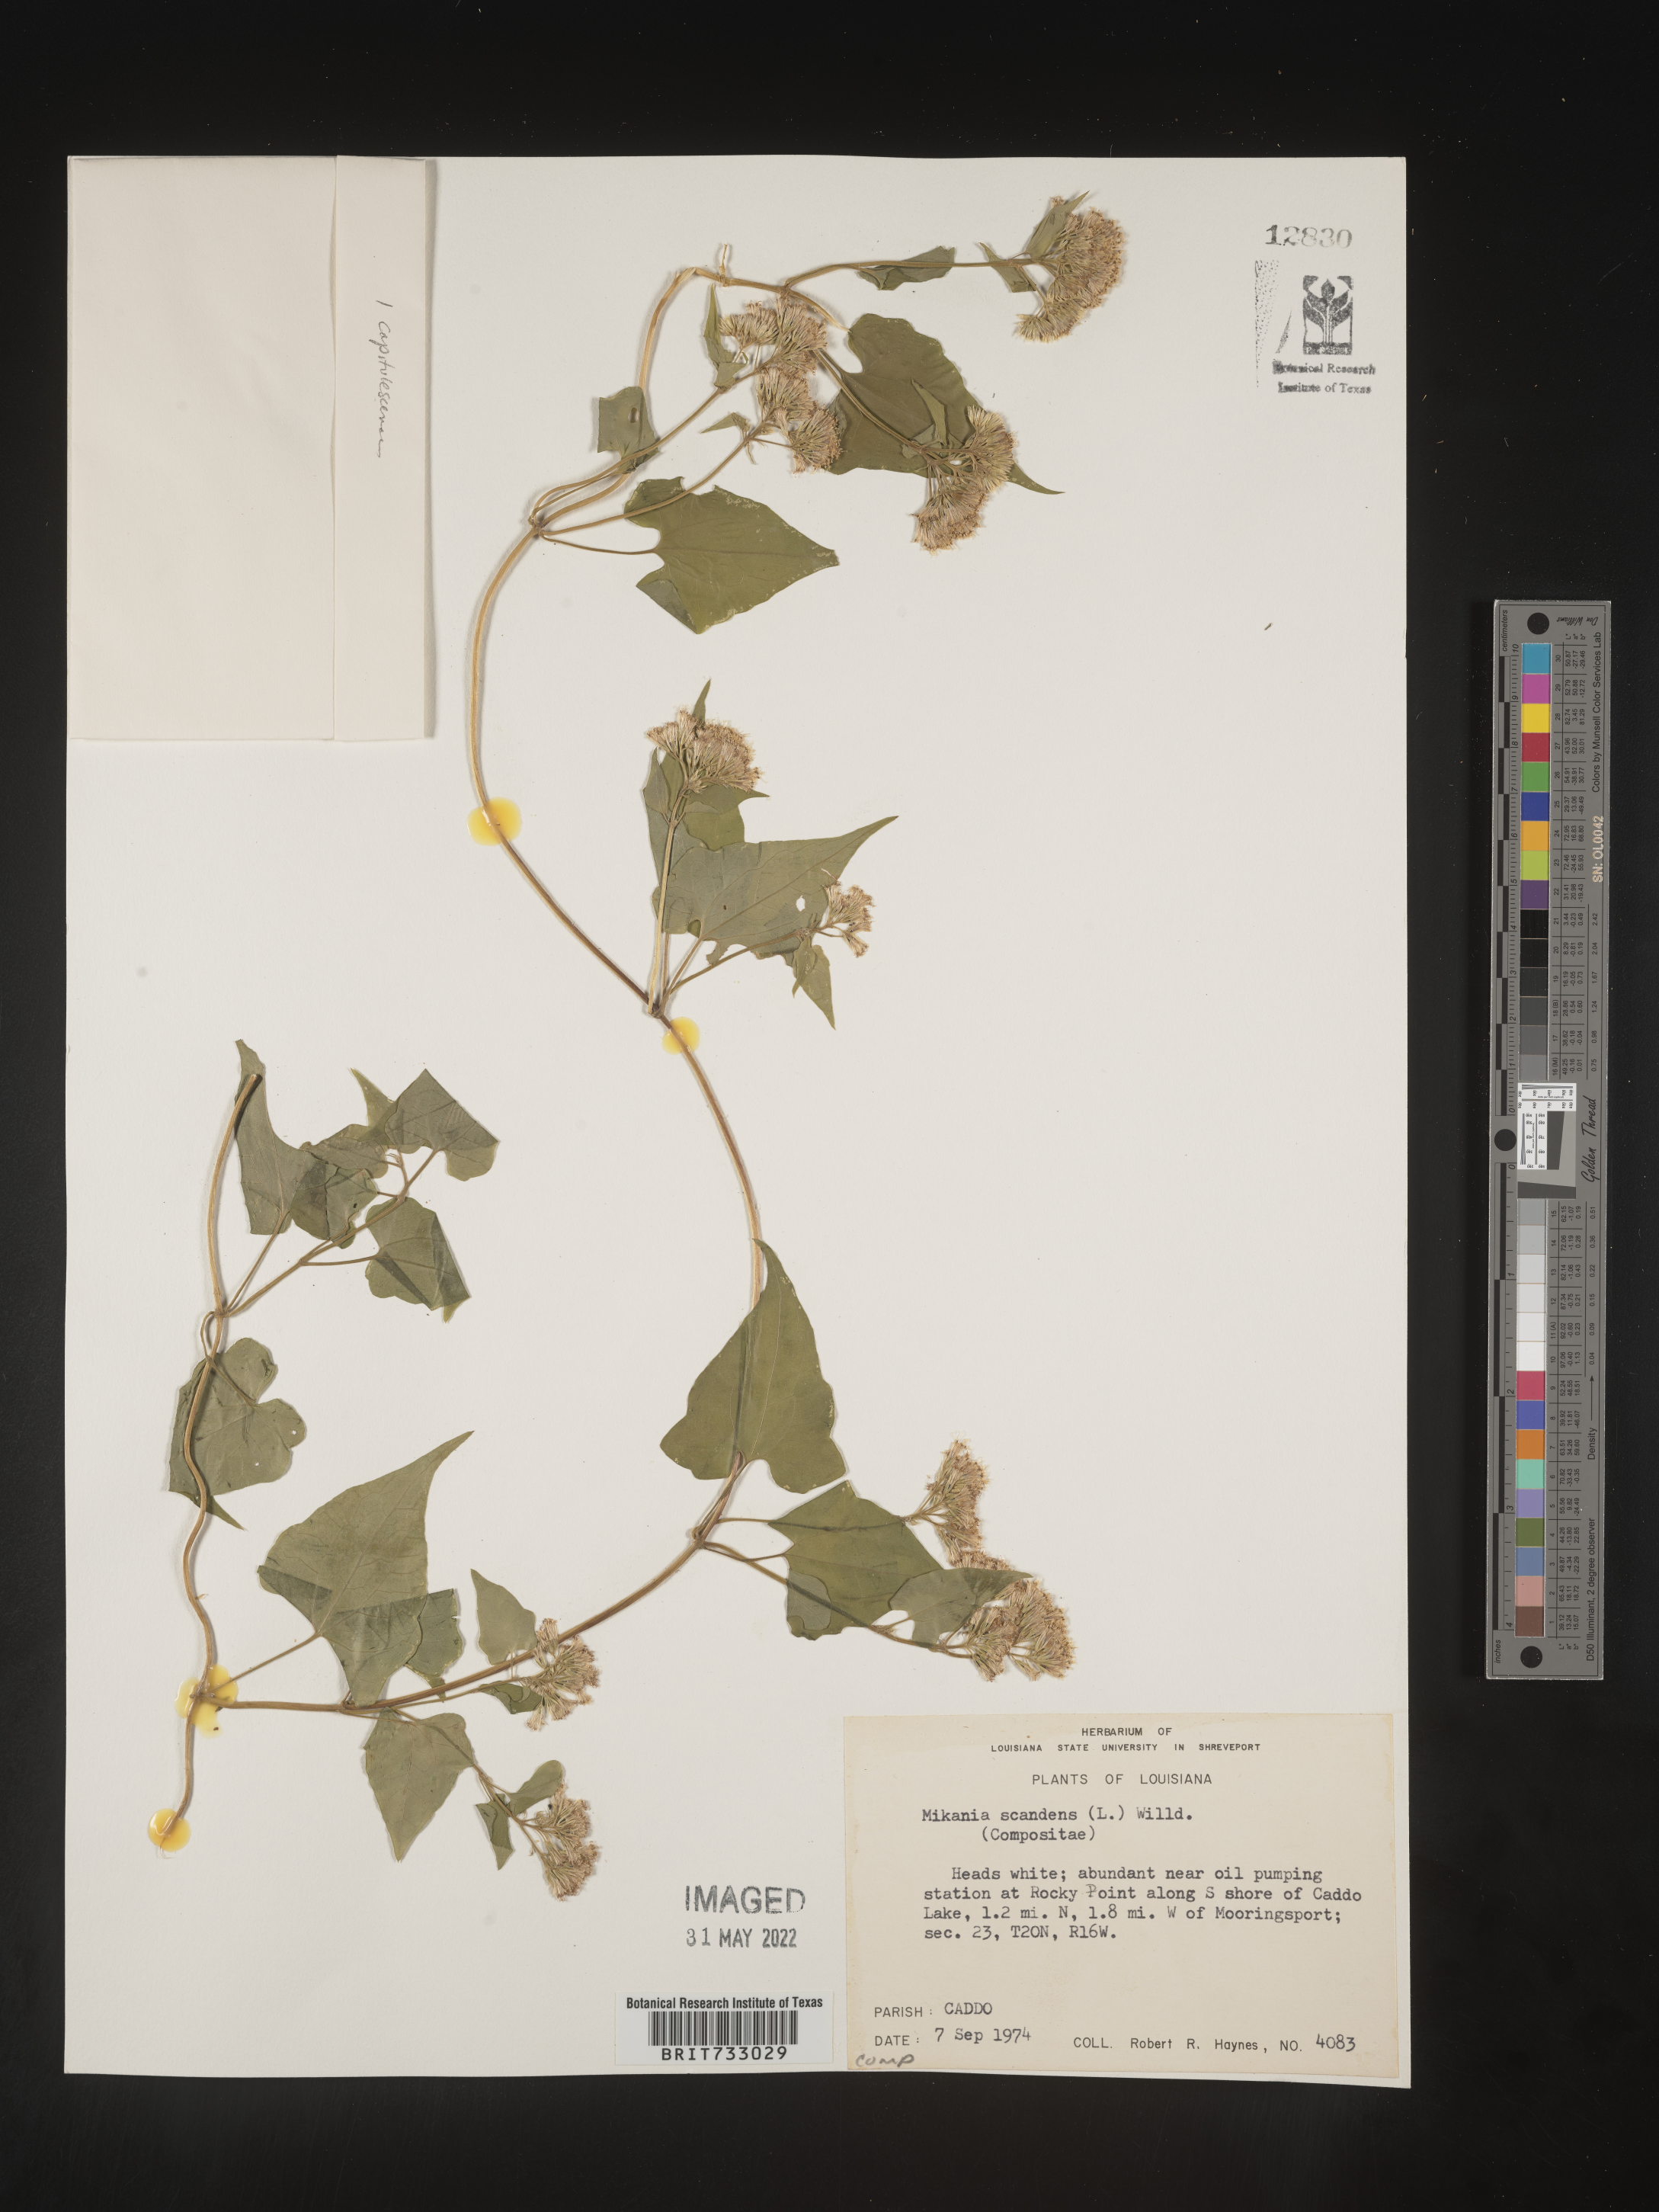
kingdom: Plantae
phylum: Tracheophyta
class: Magnoliopsida
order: Asterales
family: Asteraceae
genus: Mikania
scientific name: Mikania scandens
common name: Climbing hempvine
